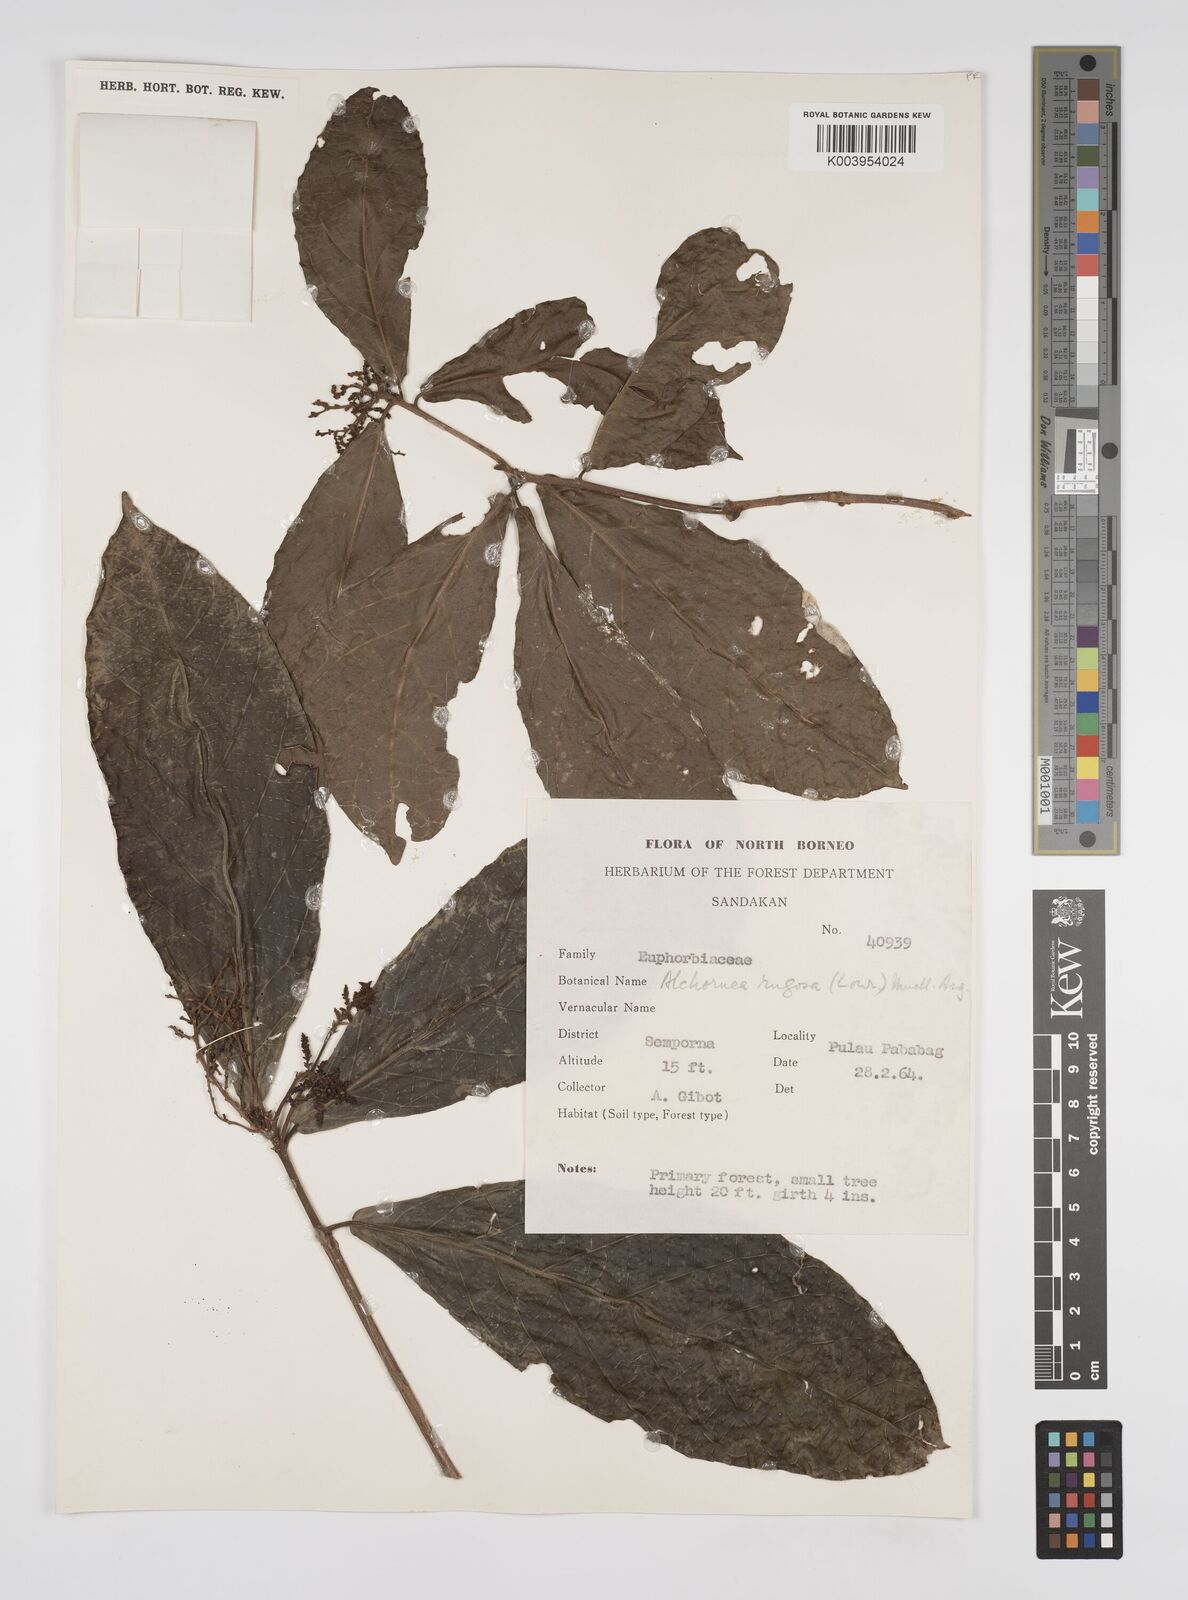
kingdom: Plantae
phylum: Tracheophyta
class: Magnoliopsida
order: Malpighiales
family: Euphorbiaceae
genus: Alchornea
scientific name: Alchornea rugosa
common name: Alchorntree
